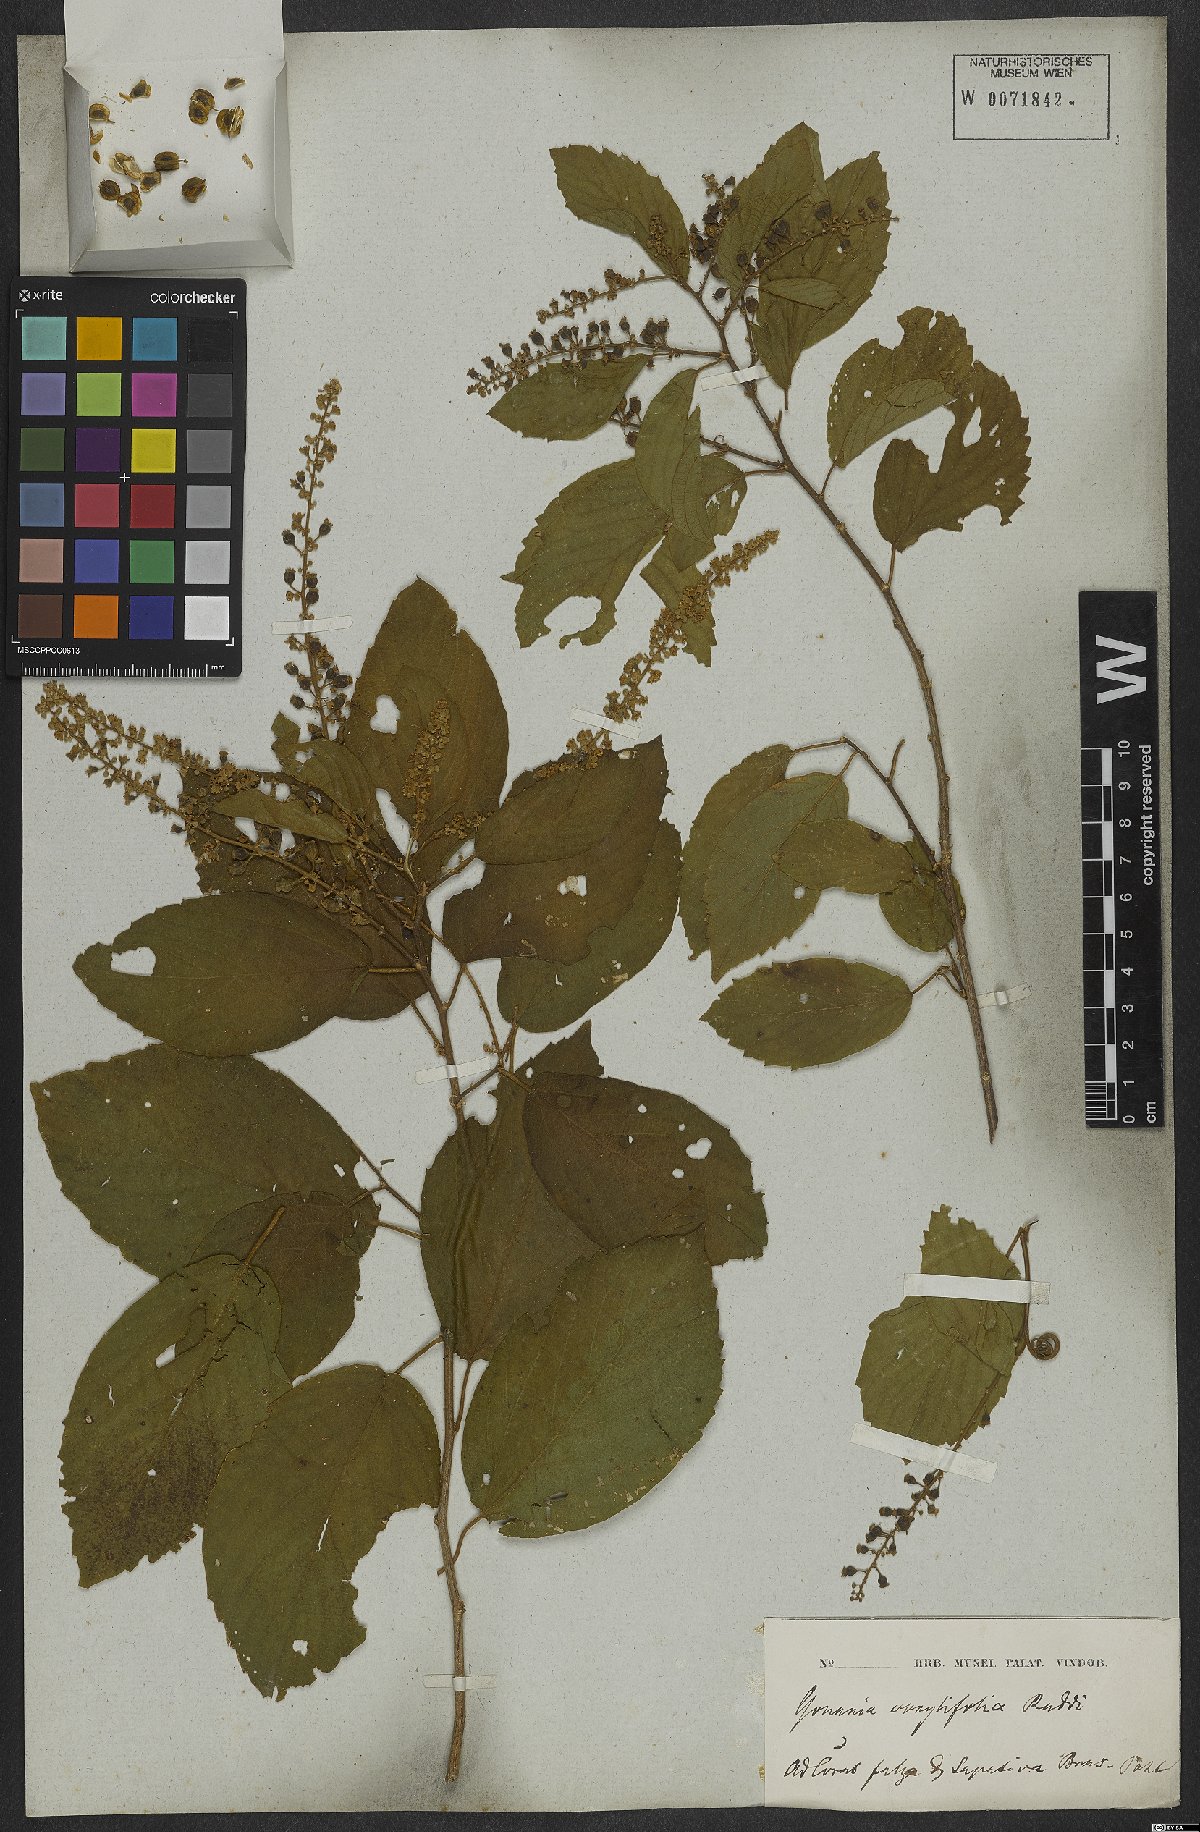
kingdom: Plantae
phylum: Tracheophyta
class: Magnoliopsida
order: Rosales
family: Rhamnaceae
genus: Gouania
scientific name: Gouania corylifolia
